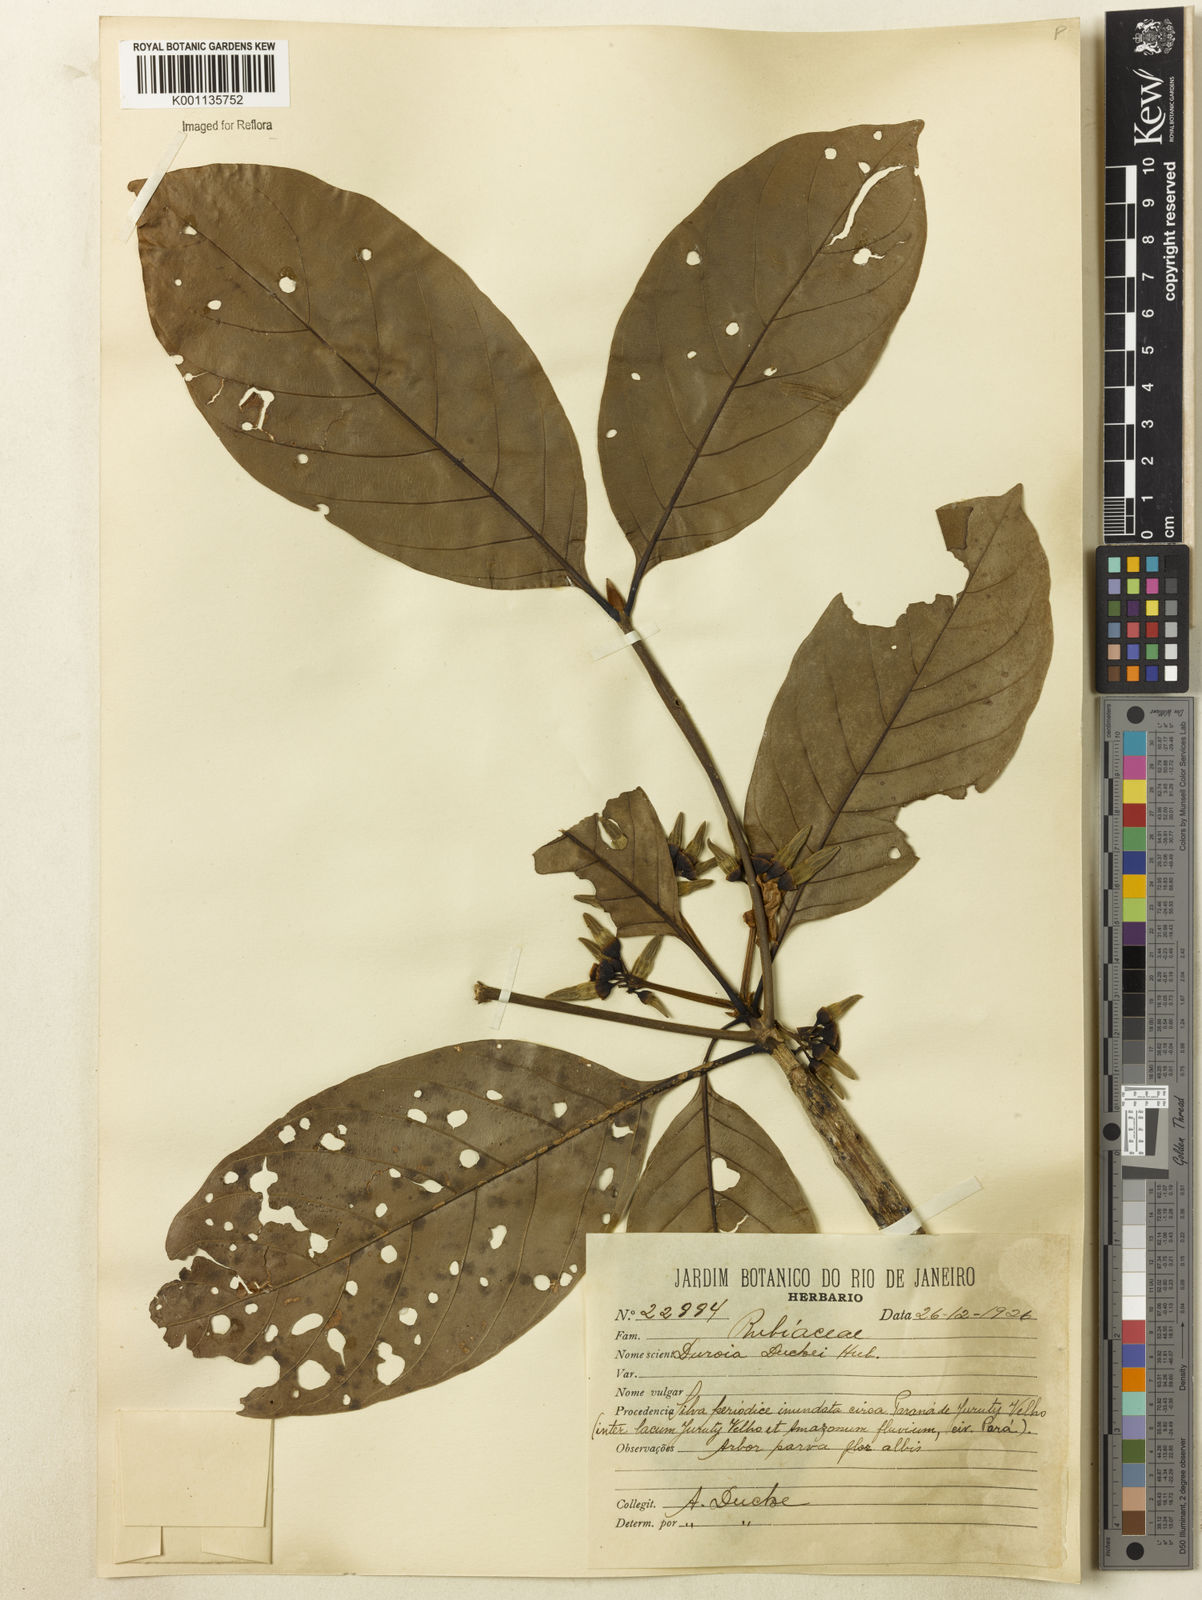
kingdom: Plantae
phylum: Tracheophyta
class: Magnoliopsida
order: Gentianales
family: Rubiaceae
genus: Duroia
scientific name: Duroia duckei
